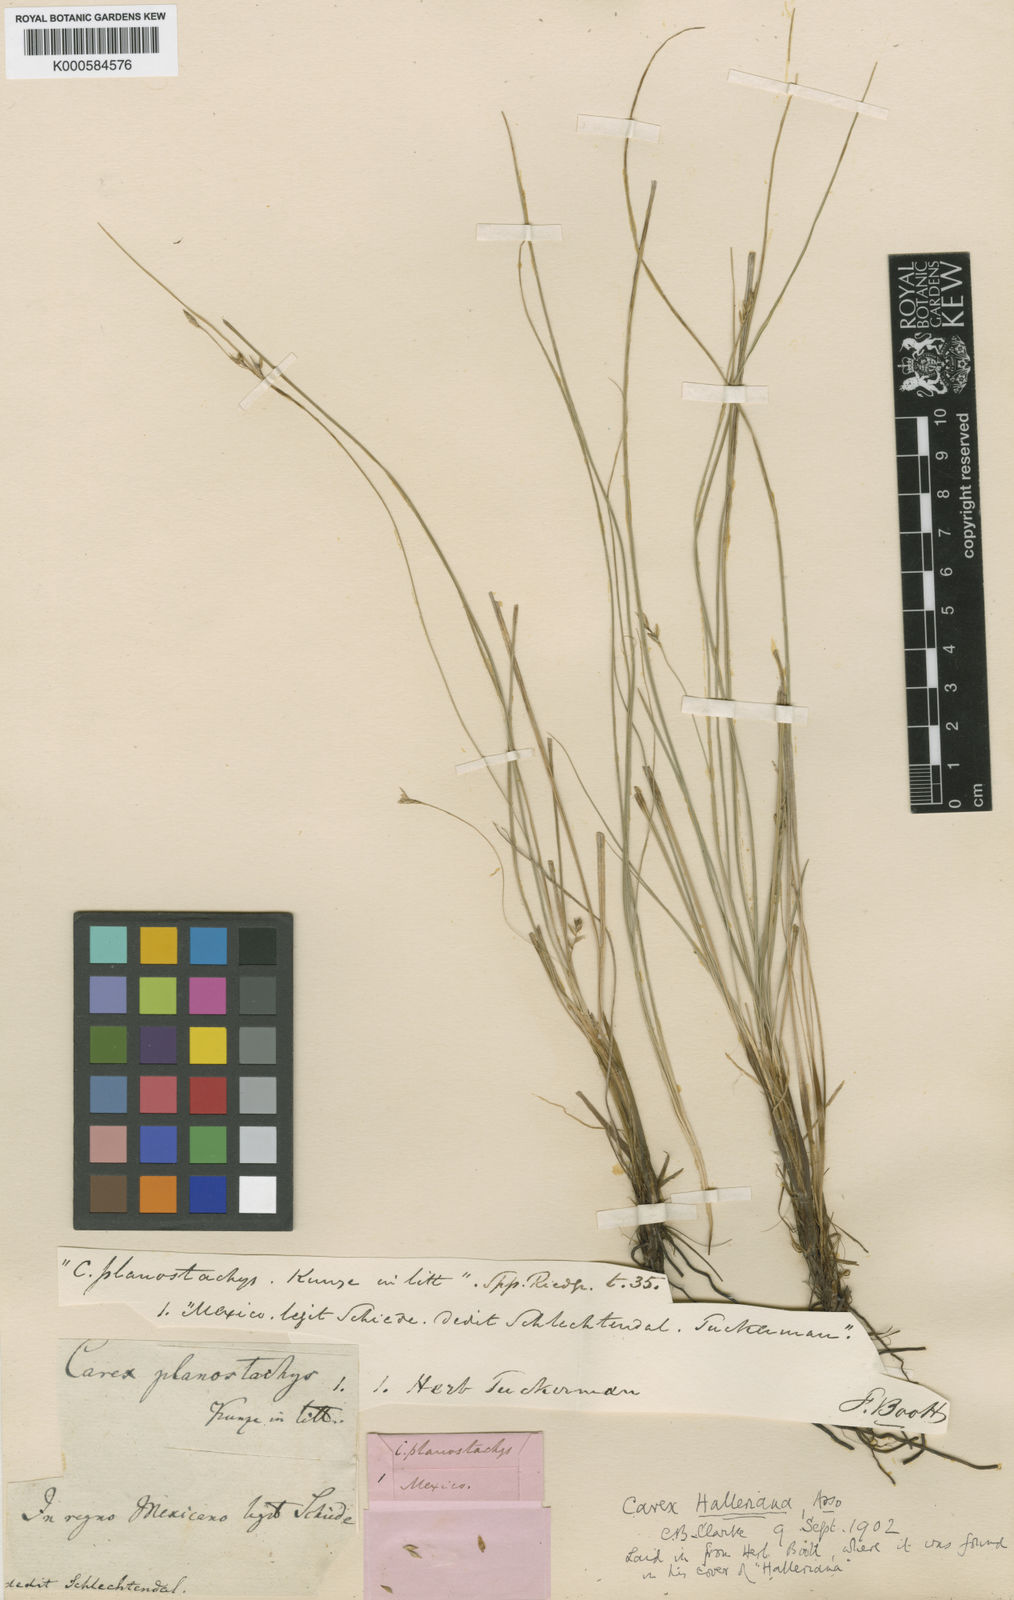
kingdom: Plantae
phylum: Tracheophyta
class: Liliopsida
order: Poales
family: Cyperaceae
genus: Carex
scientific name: Carex planostachys
